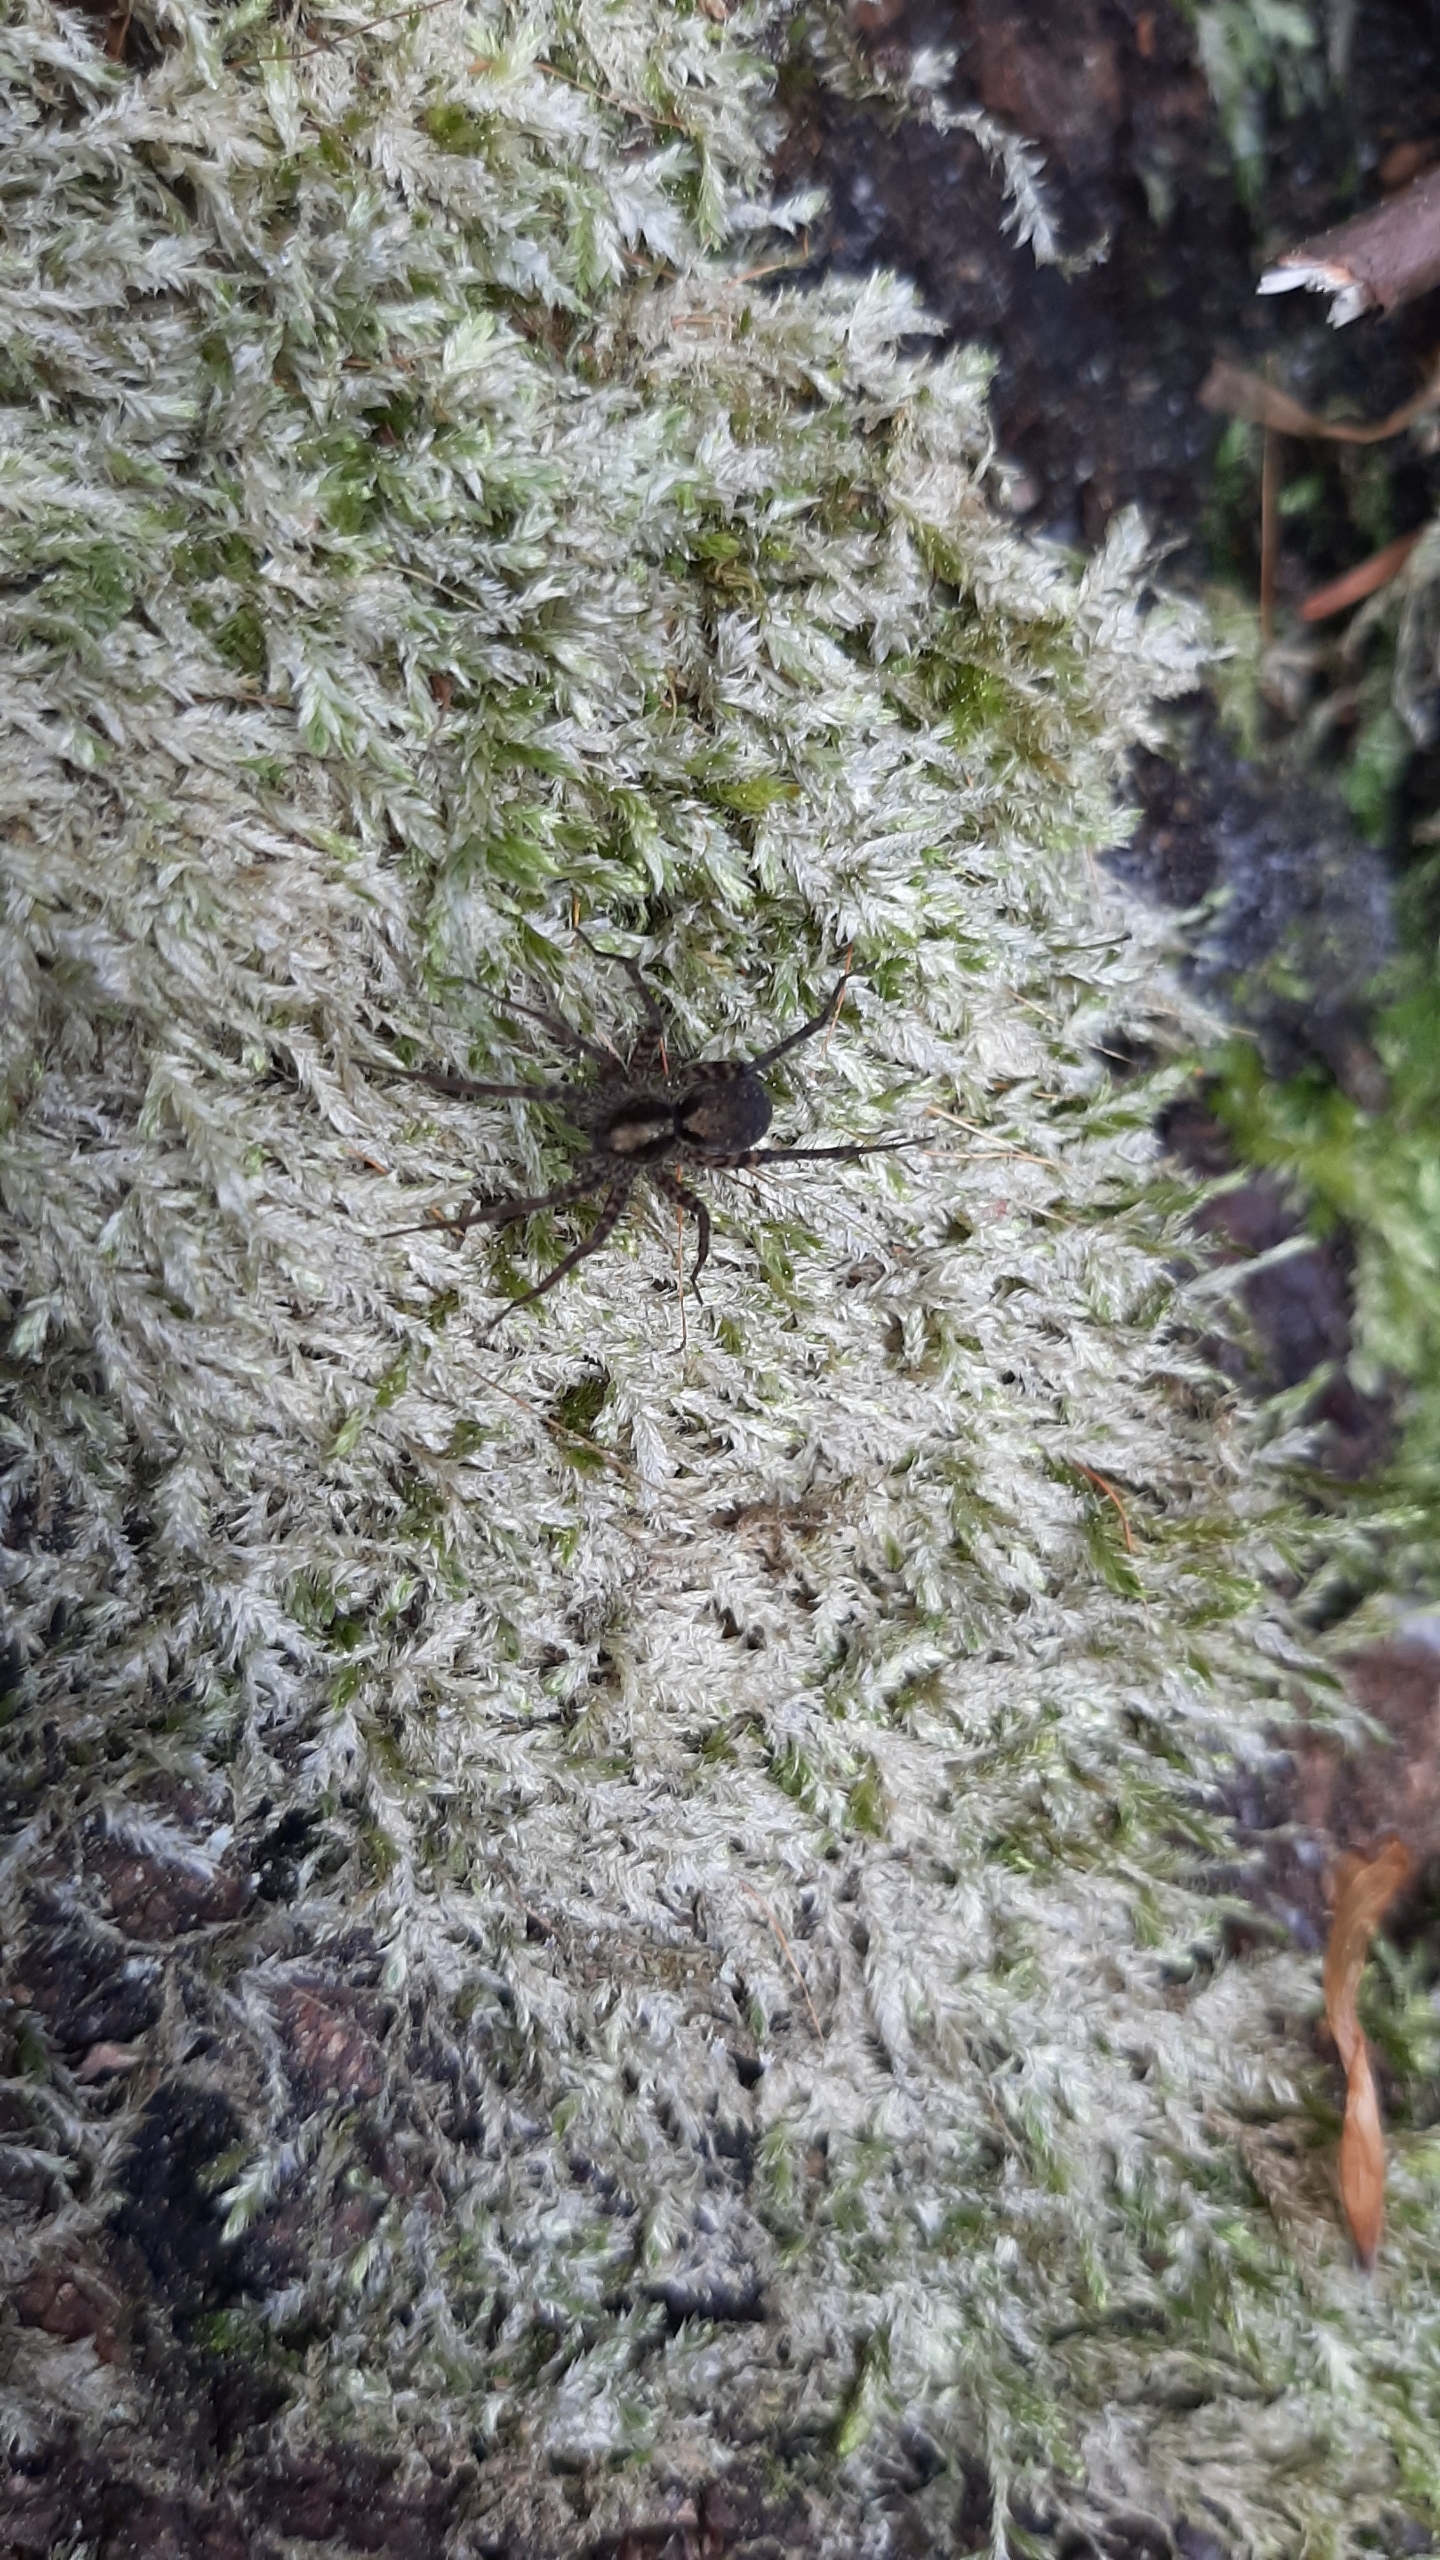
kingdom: Animalia
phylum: Arthropoda
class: Arachnida
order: Araneae
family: Lycosidae
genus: Pardosa
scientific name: Pardosa
